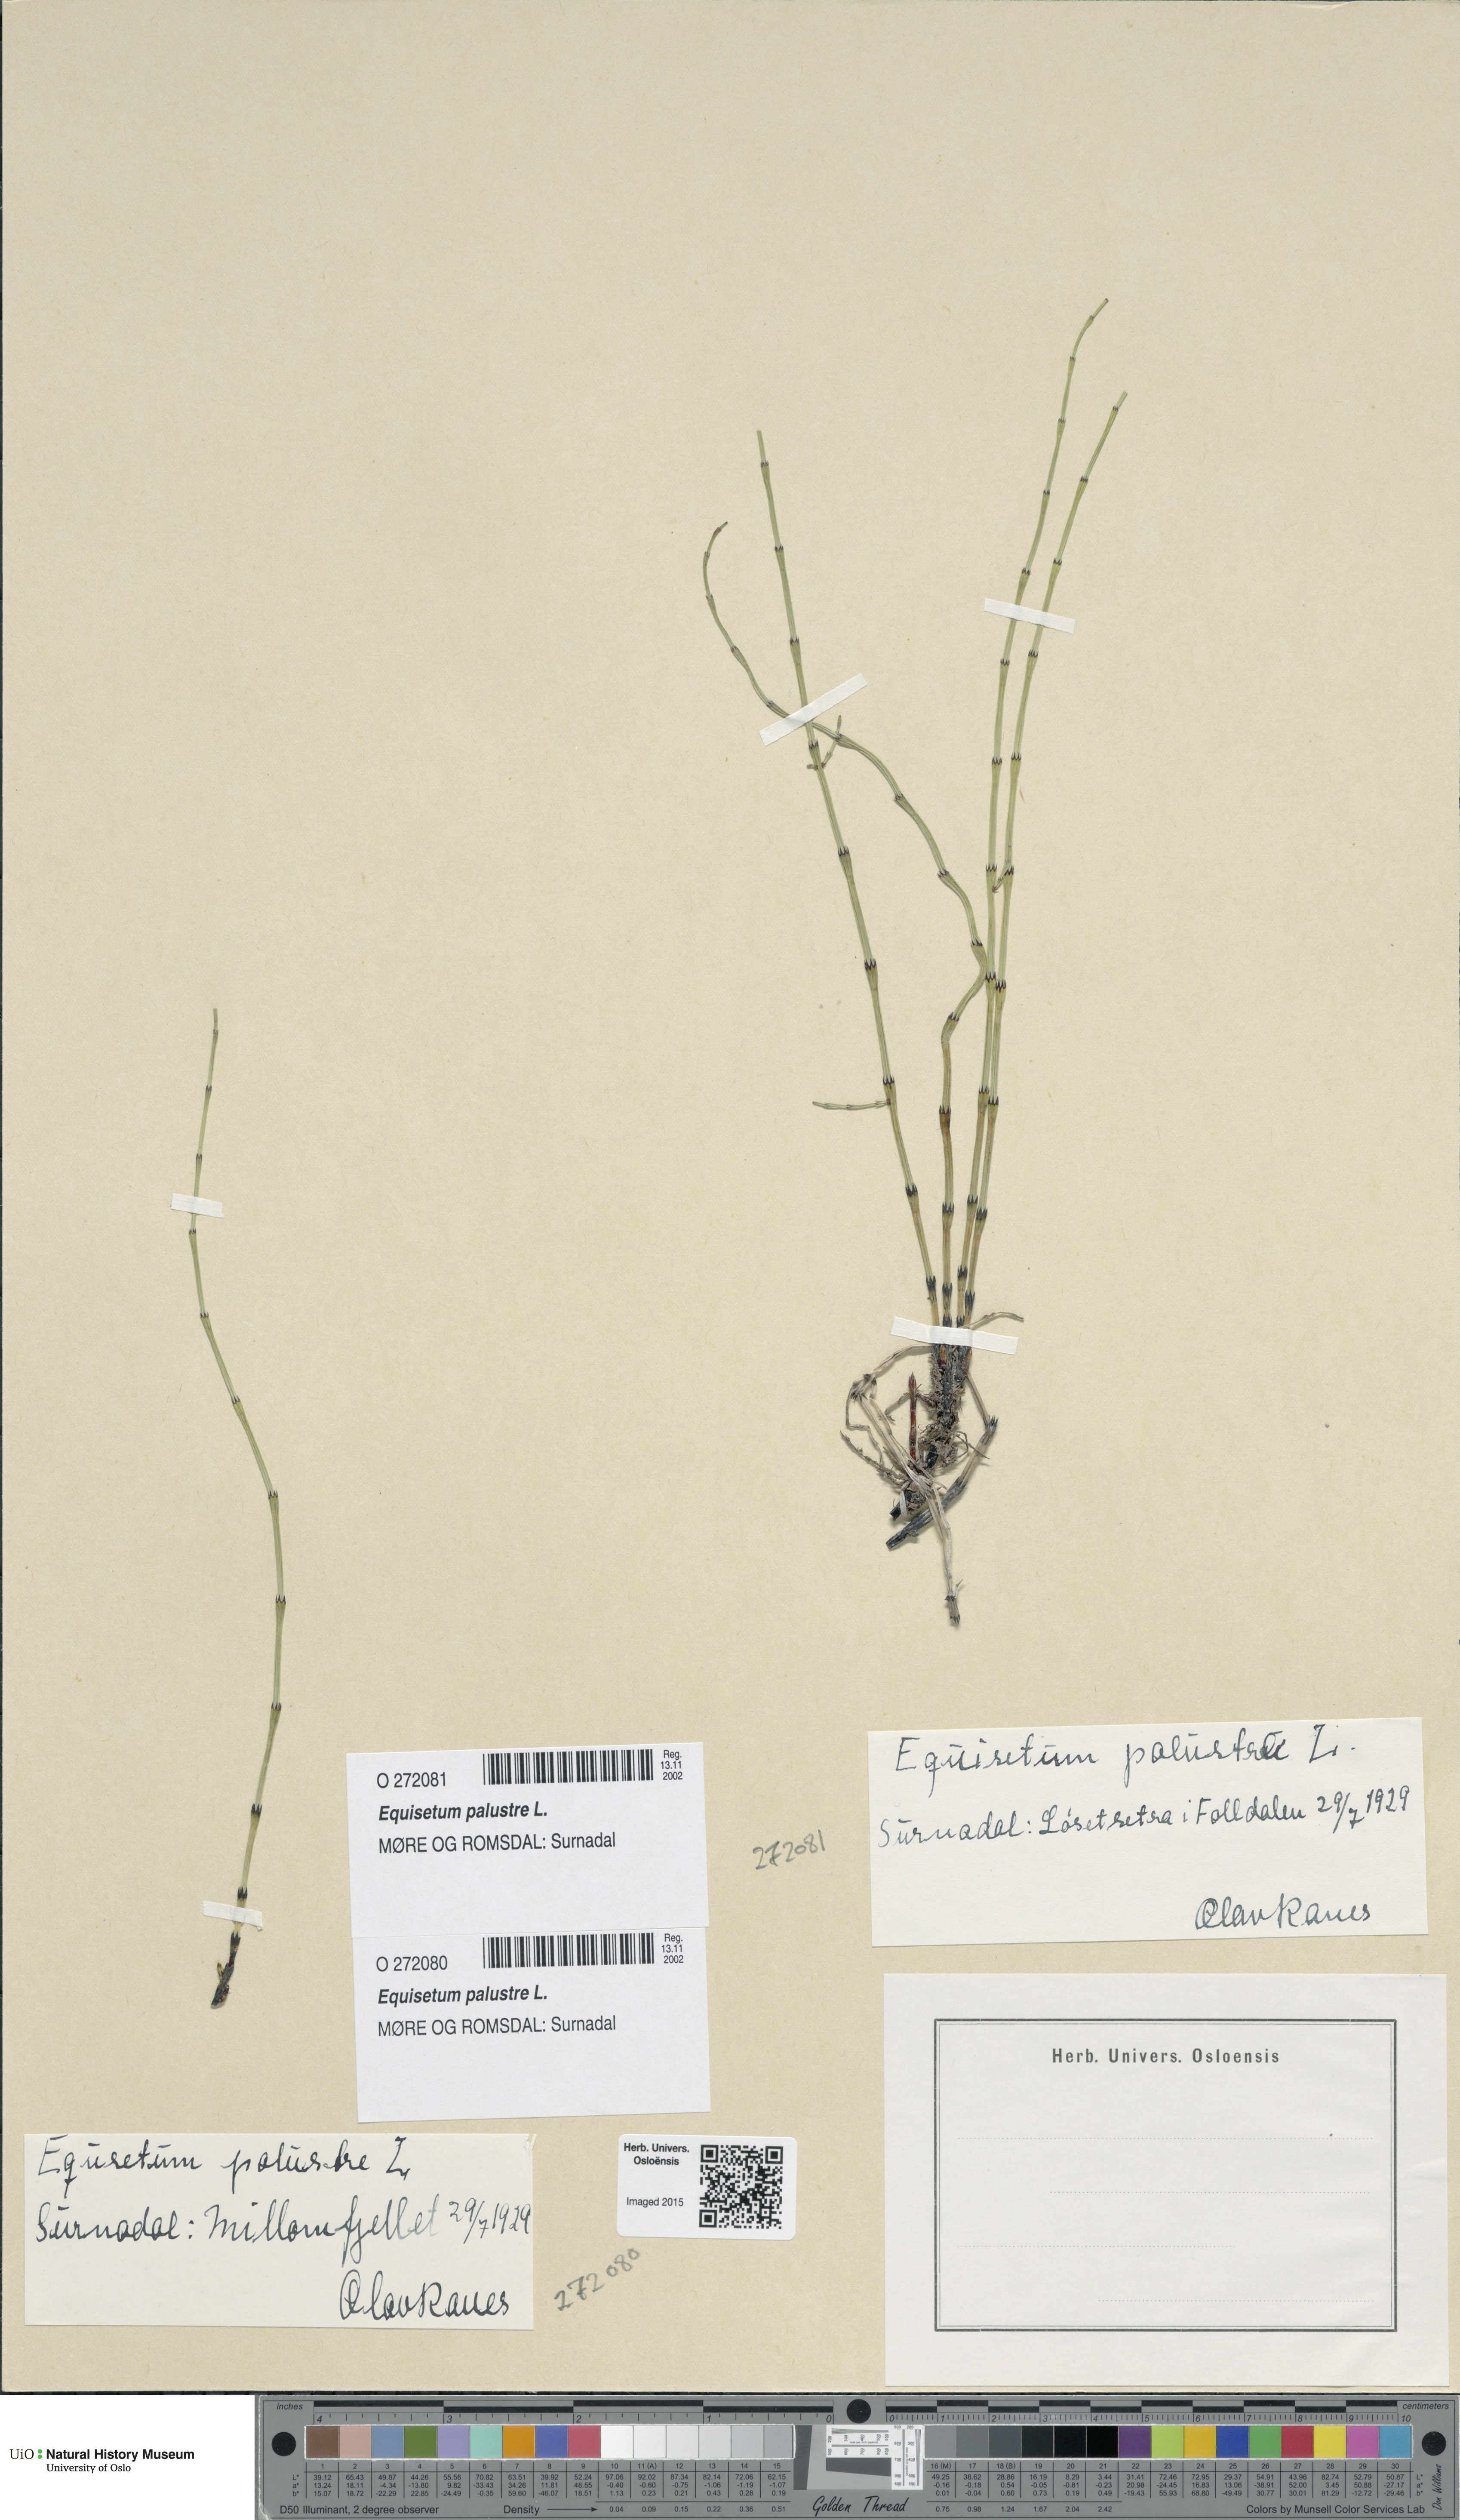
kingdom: Plantae
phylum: Tracheophyta
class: Polypodiopsida
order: Equisetales
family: Equisetaceae
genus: Equisetum
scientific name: Equisetum palustre
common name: Marsh horsetail
